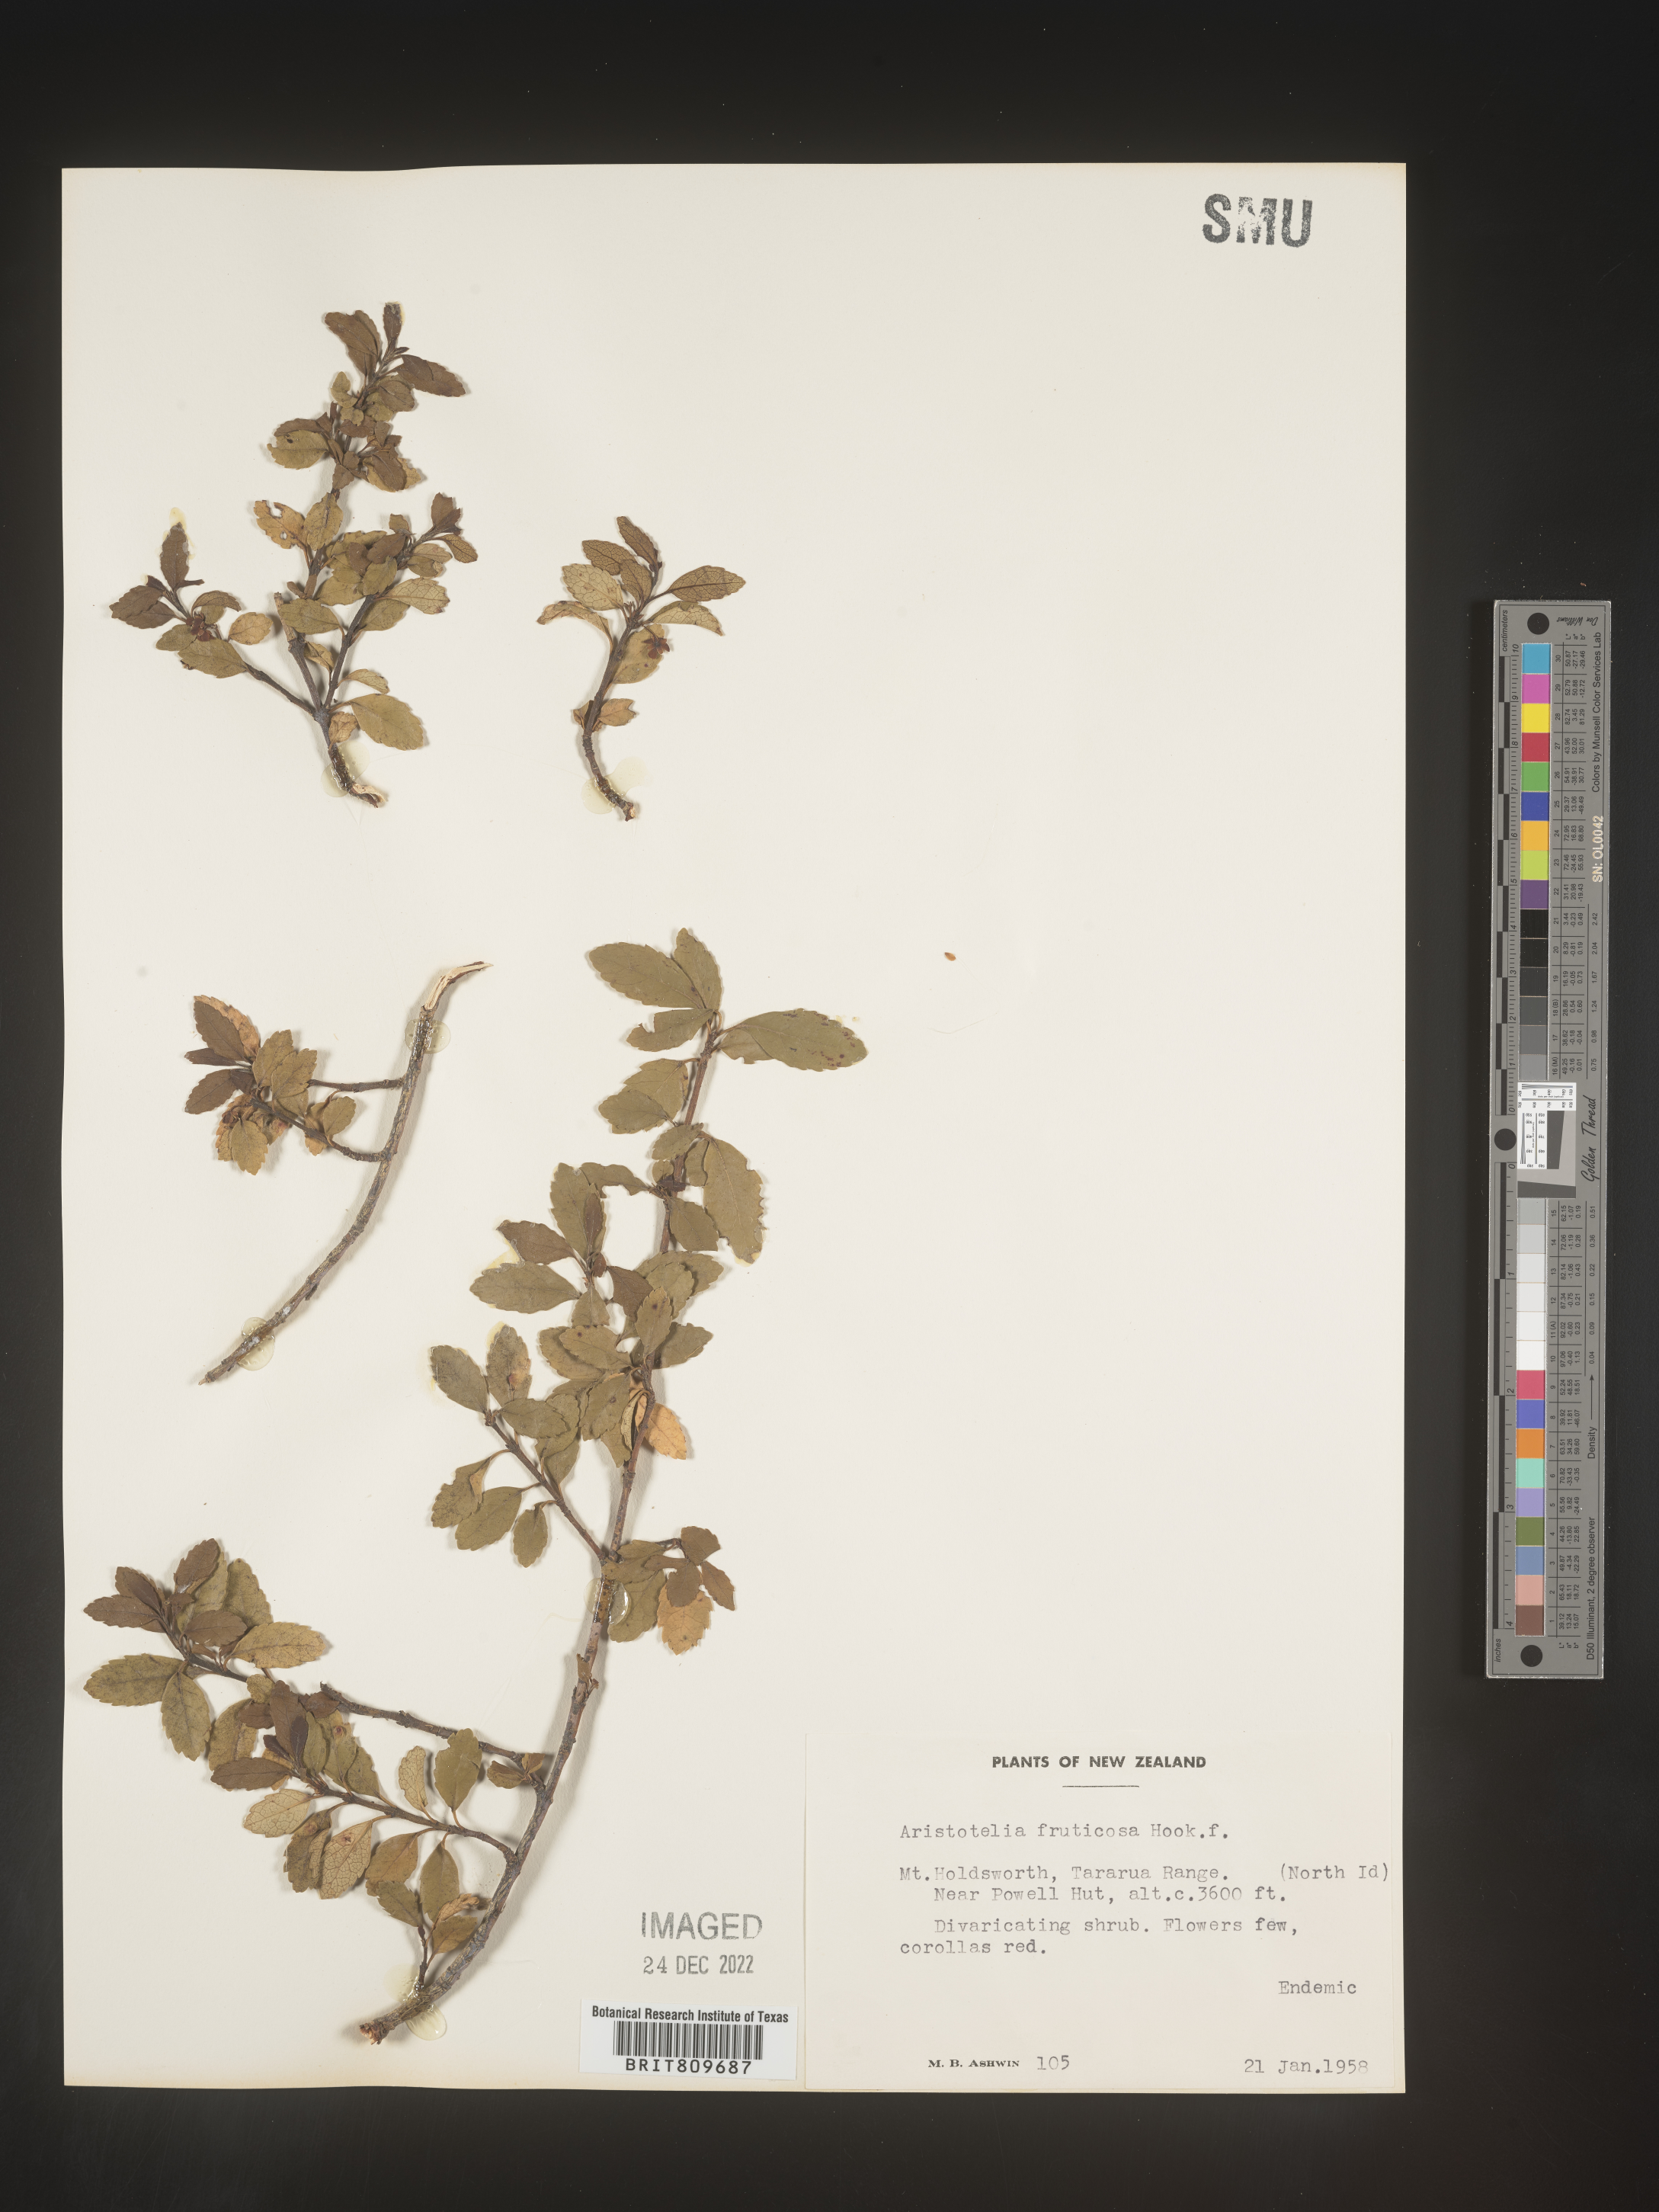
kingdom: Plantae
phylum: Tracheophyta
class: Magnoliopsida
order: Oxalidales
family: Elaeocarpaceae
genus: Aristotelia
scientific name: Aristotelia
